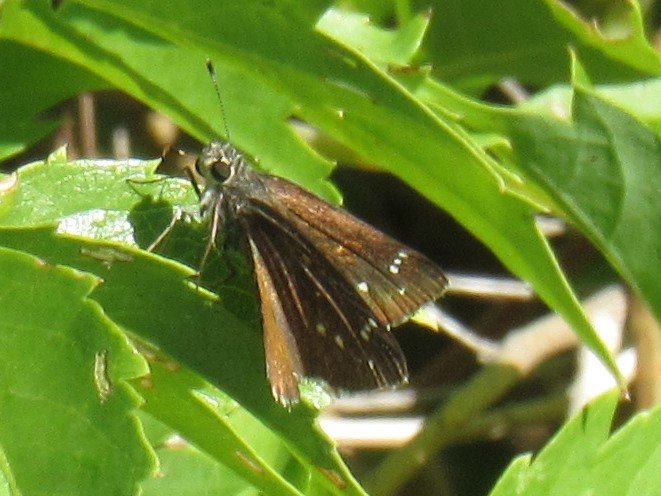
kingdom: Animalia
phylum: Arthropoda
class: Insecta
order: Lepidoptera
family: Hesperiidae
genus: Mastor
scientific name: Mastor exoteria
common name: Large Roadside-Skipper
